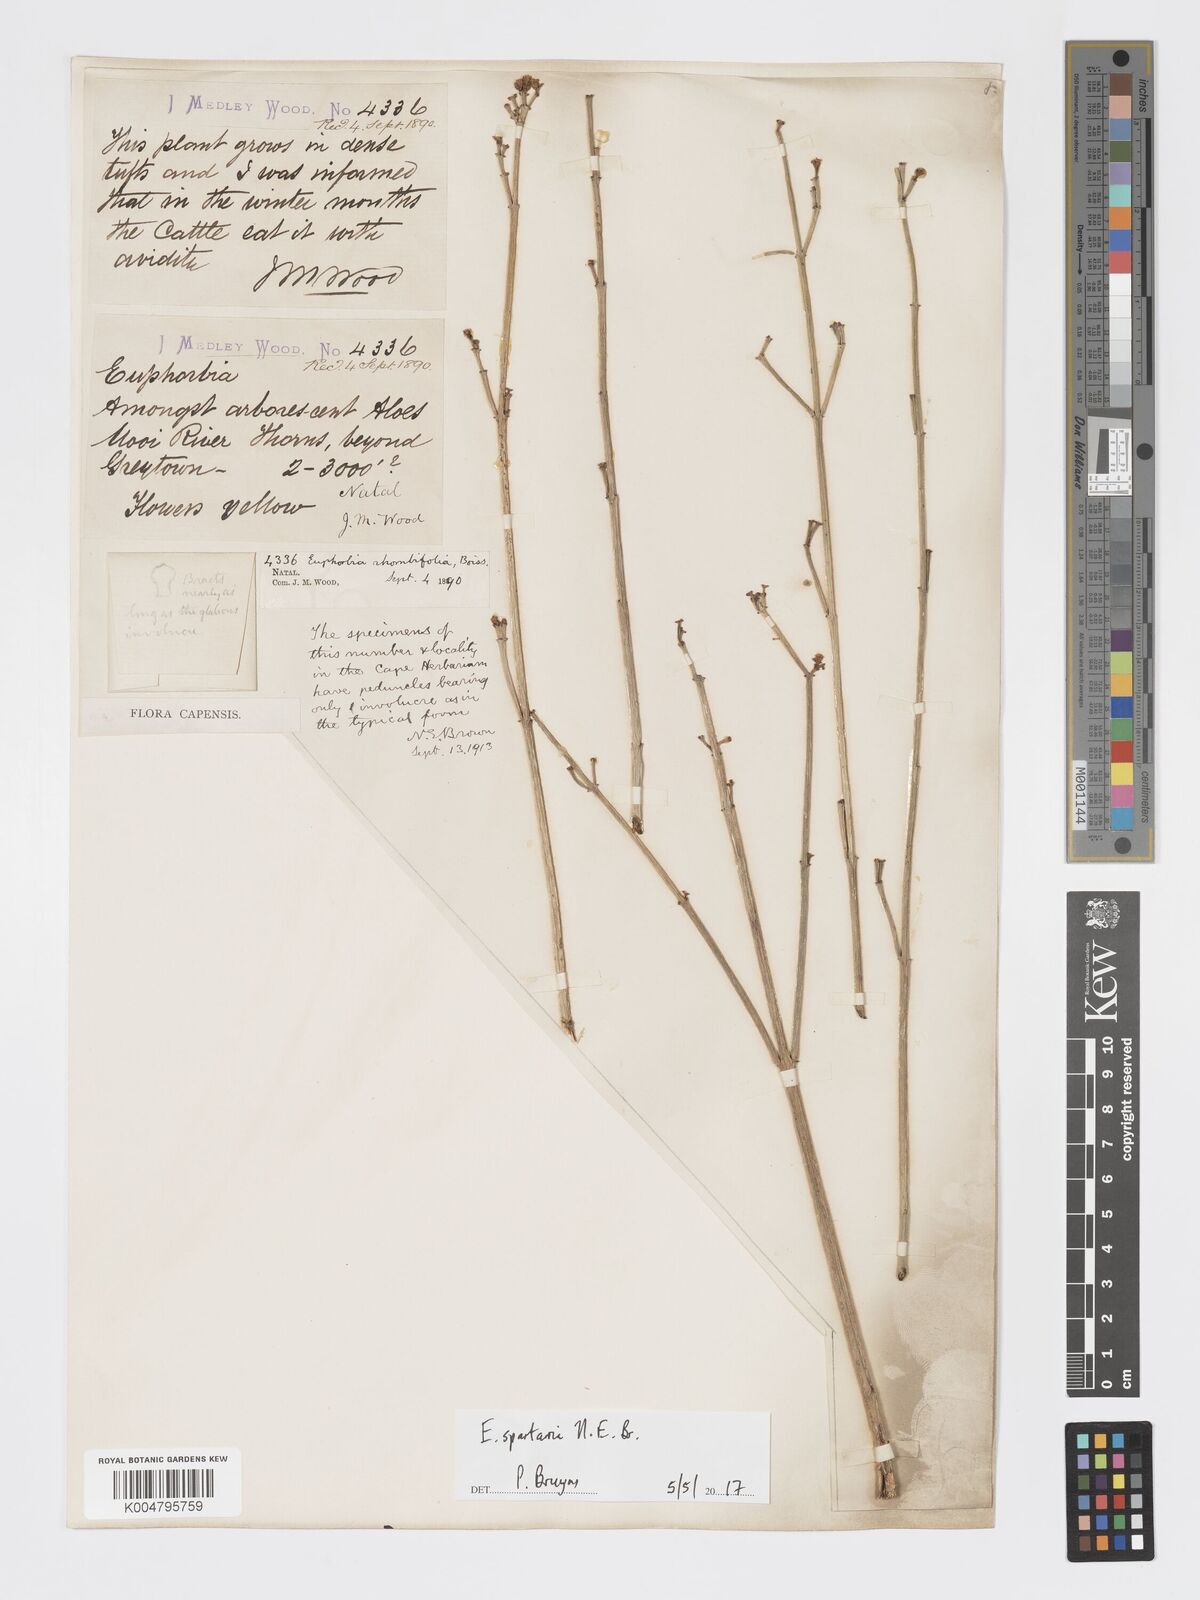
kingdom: Plantae
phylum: Tracheophyta
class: Magnoliopsida
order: Malpighiales
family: Euphorbiaceae
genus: Euphorbia
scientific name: Euphorbia spartaria
